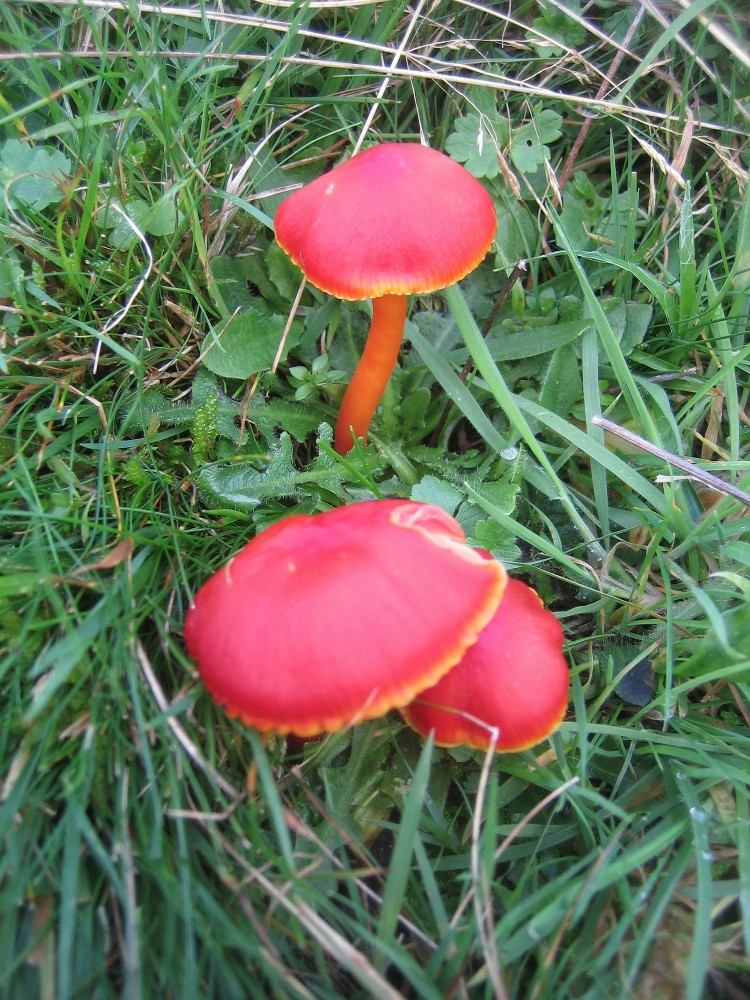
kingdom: Fungi
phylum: Basidiomycota
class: Agaricomycetes
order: Agaricales
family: Hygrophoraceae
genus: Hygrocybe
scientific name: Hygrocybe coccinea
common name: cinnober-vokshat
